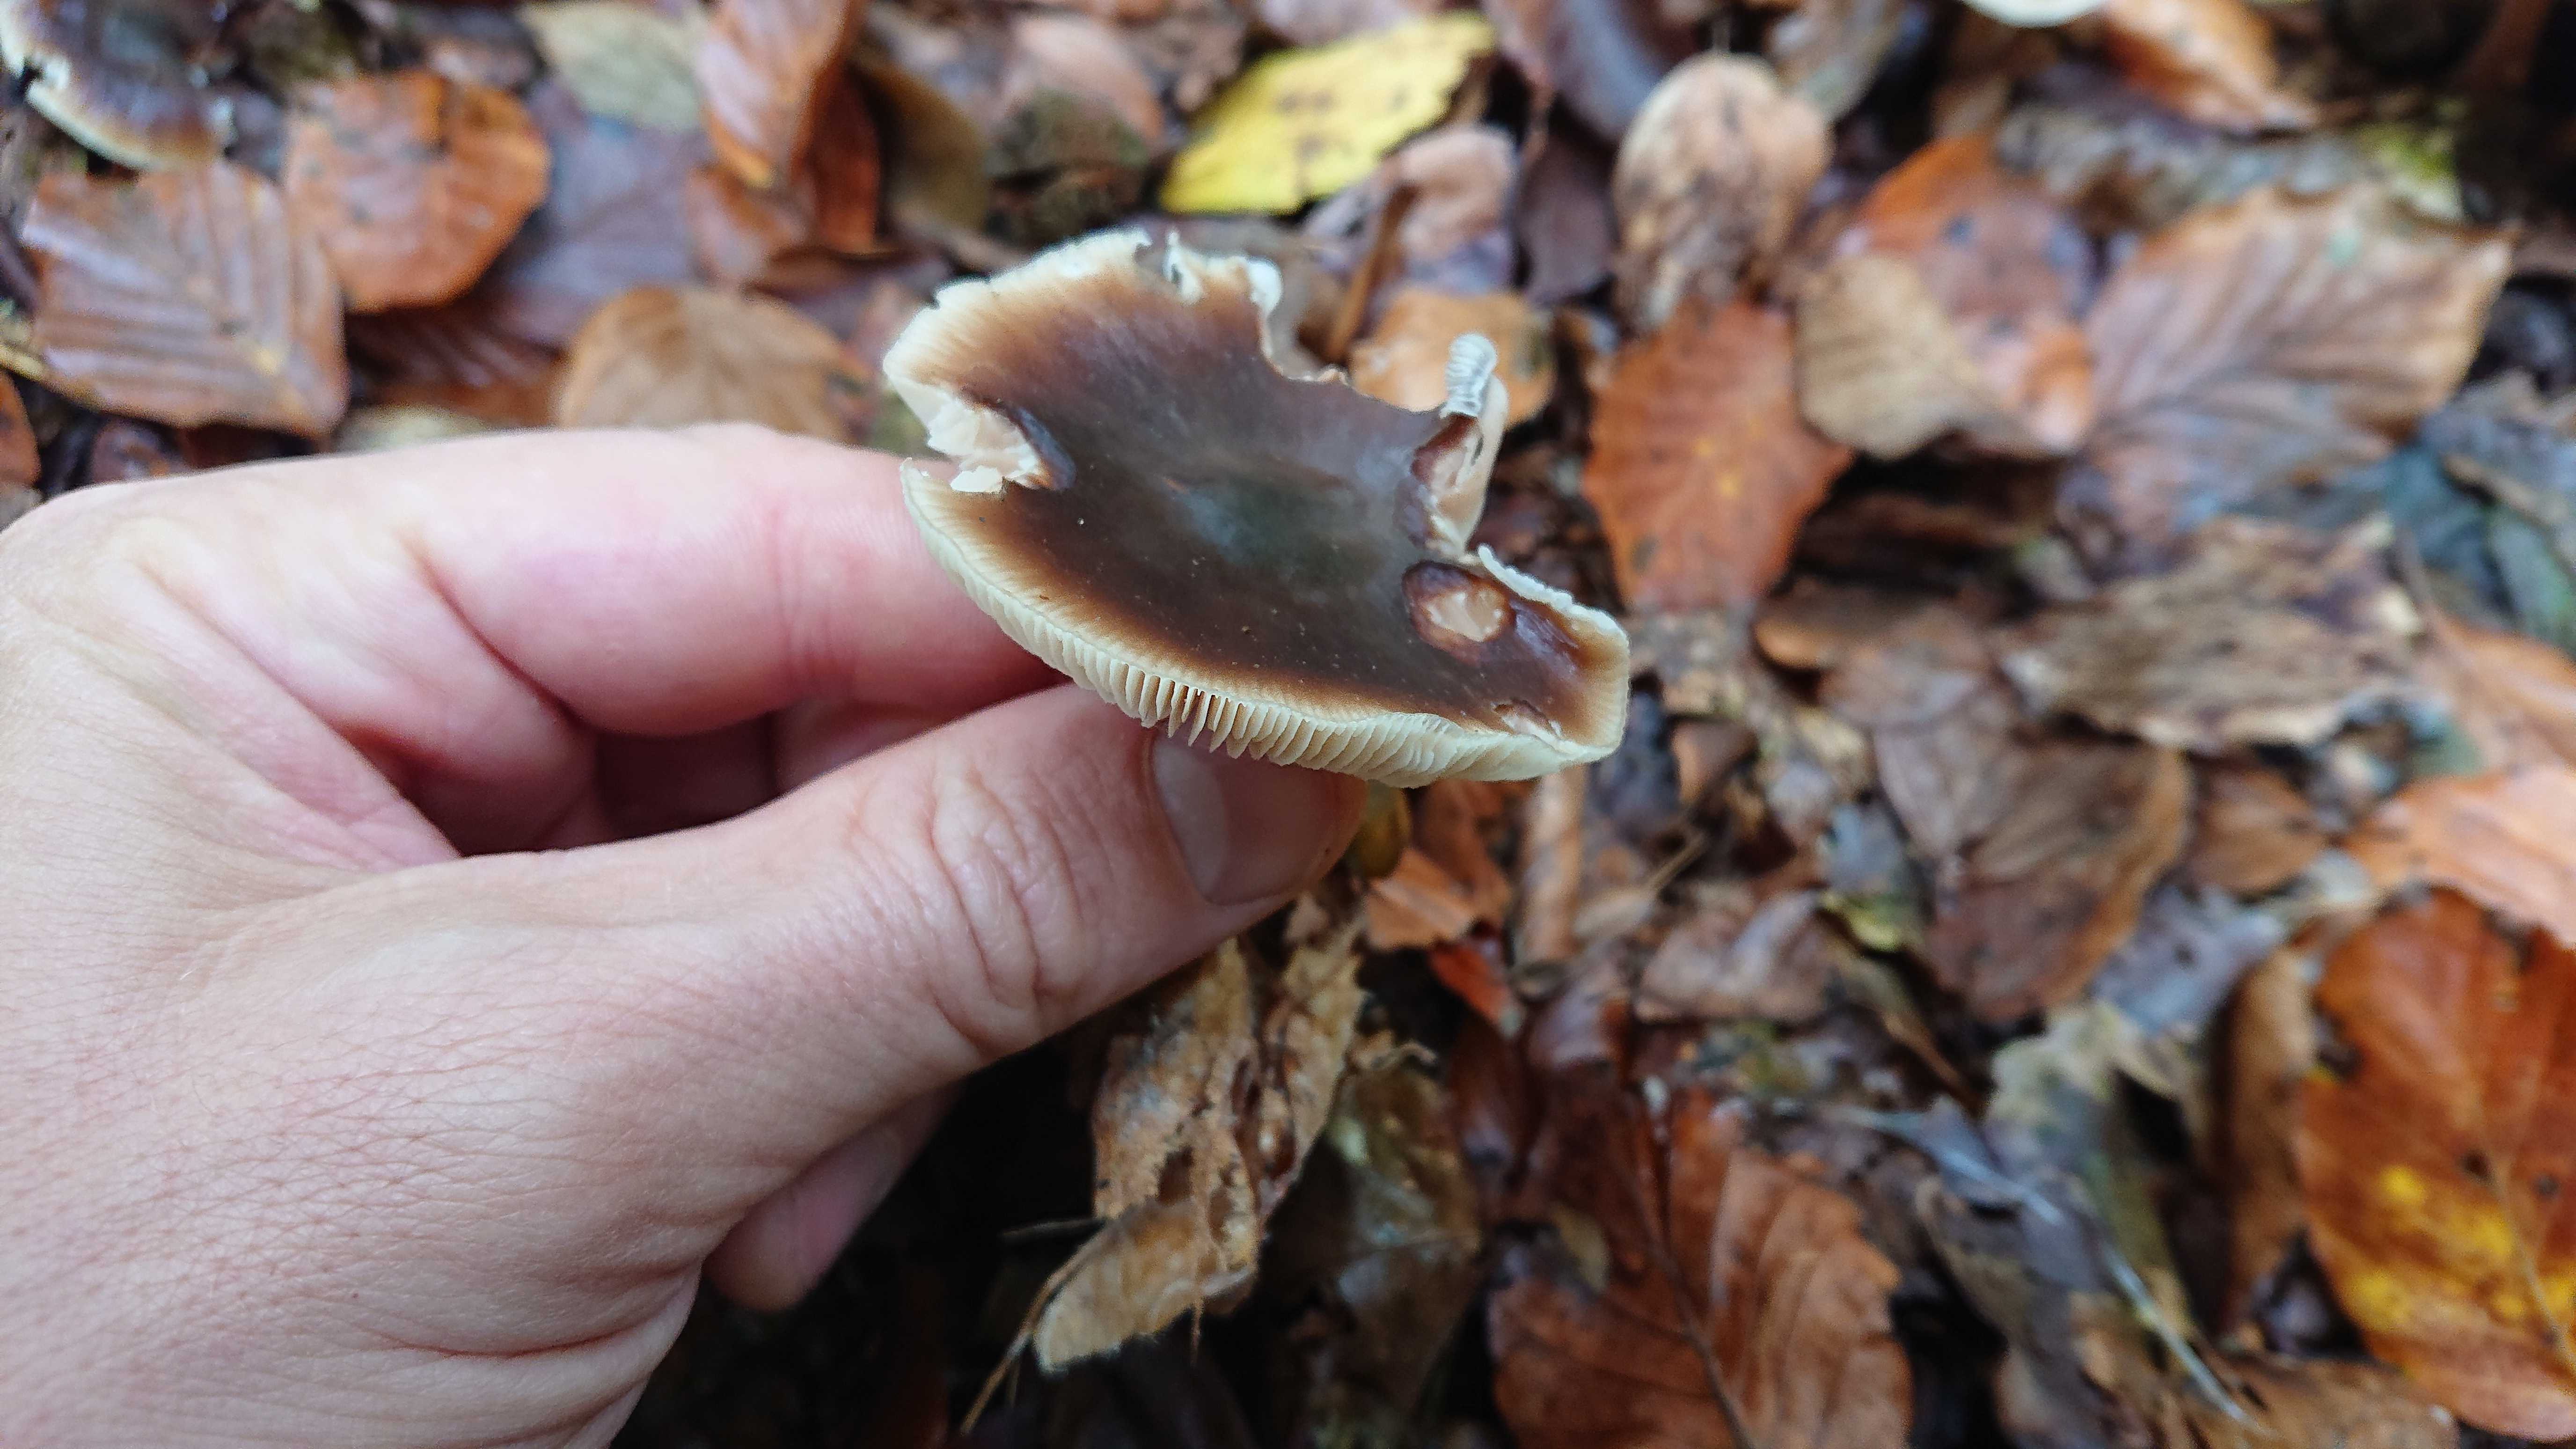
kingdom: Fungi
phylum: Basidiomycota
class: Agaricomycetes
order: Agaricales
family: Omphalotaceae
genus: Rhodocollybia
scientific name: Rhodocollybia asema
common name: horngrå fladhat
